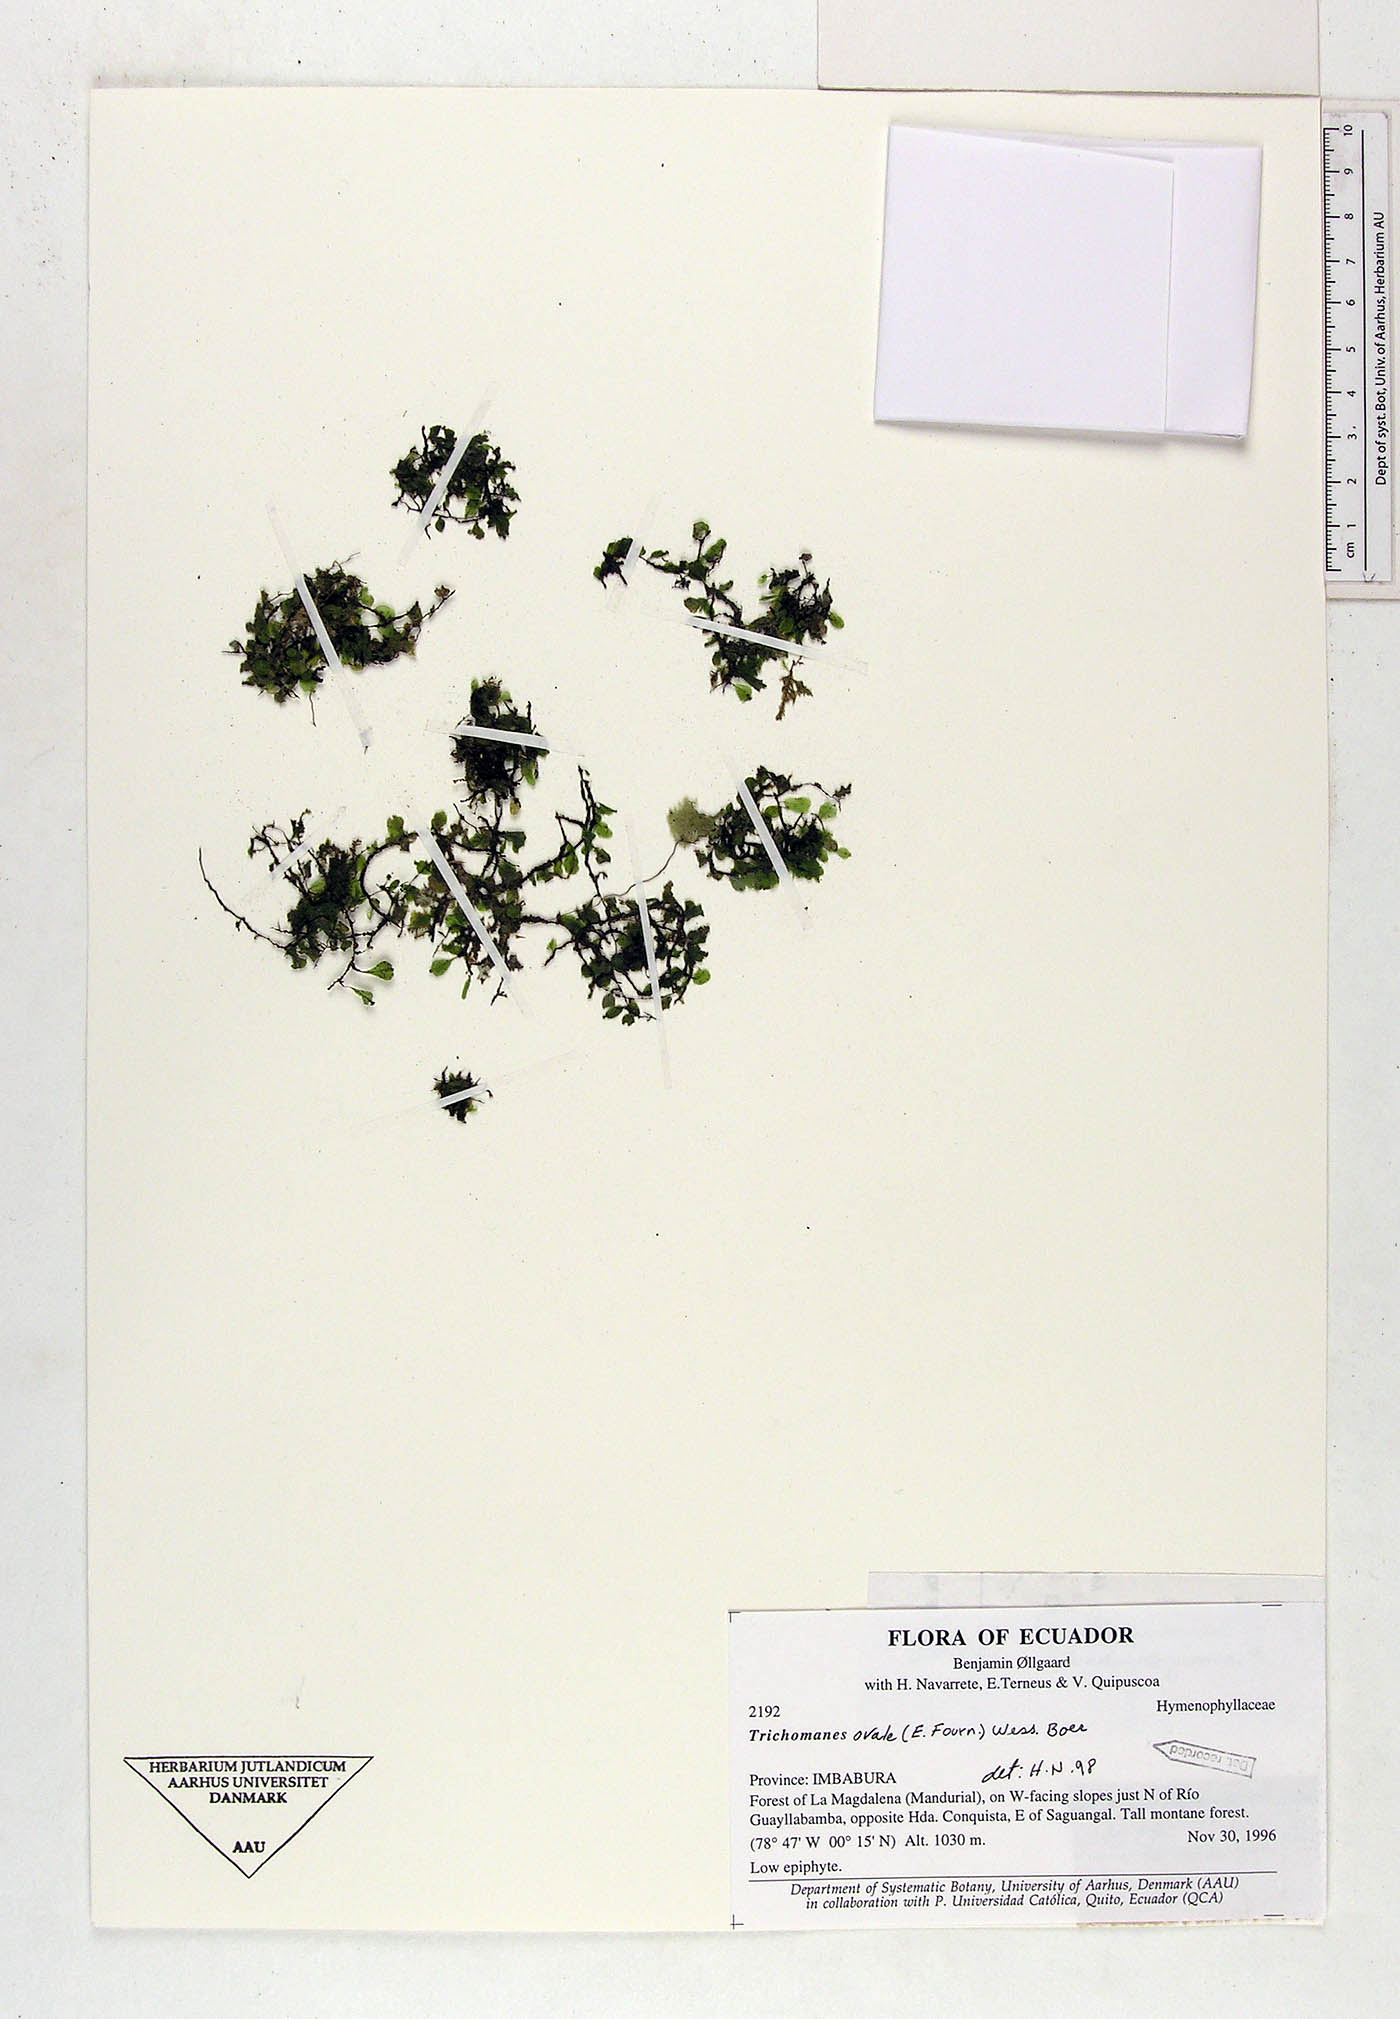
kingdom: Plantae
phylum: Tracheophyta
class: Polypodiopsida
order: Hymenophyllales
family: Hymenophyllaceae
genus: Didymoglossum
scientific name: Didymoglossum ovale
